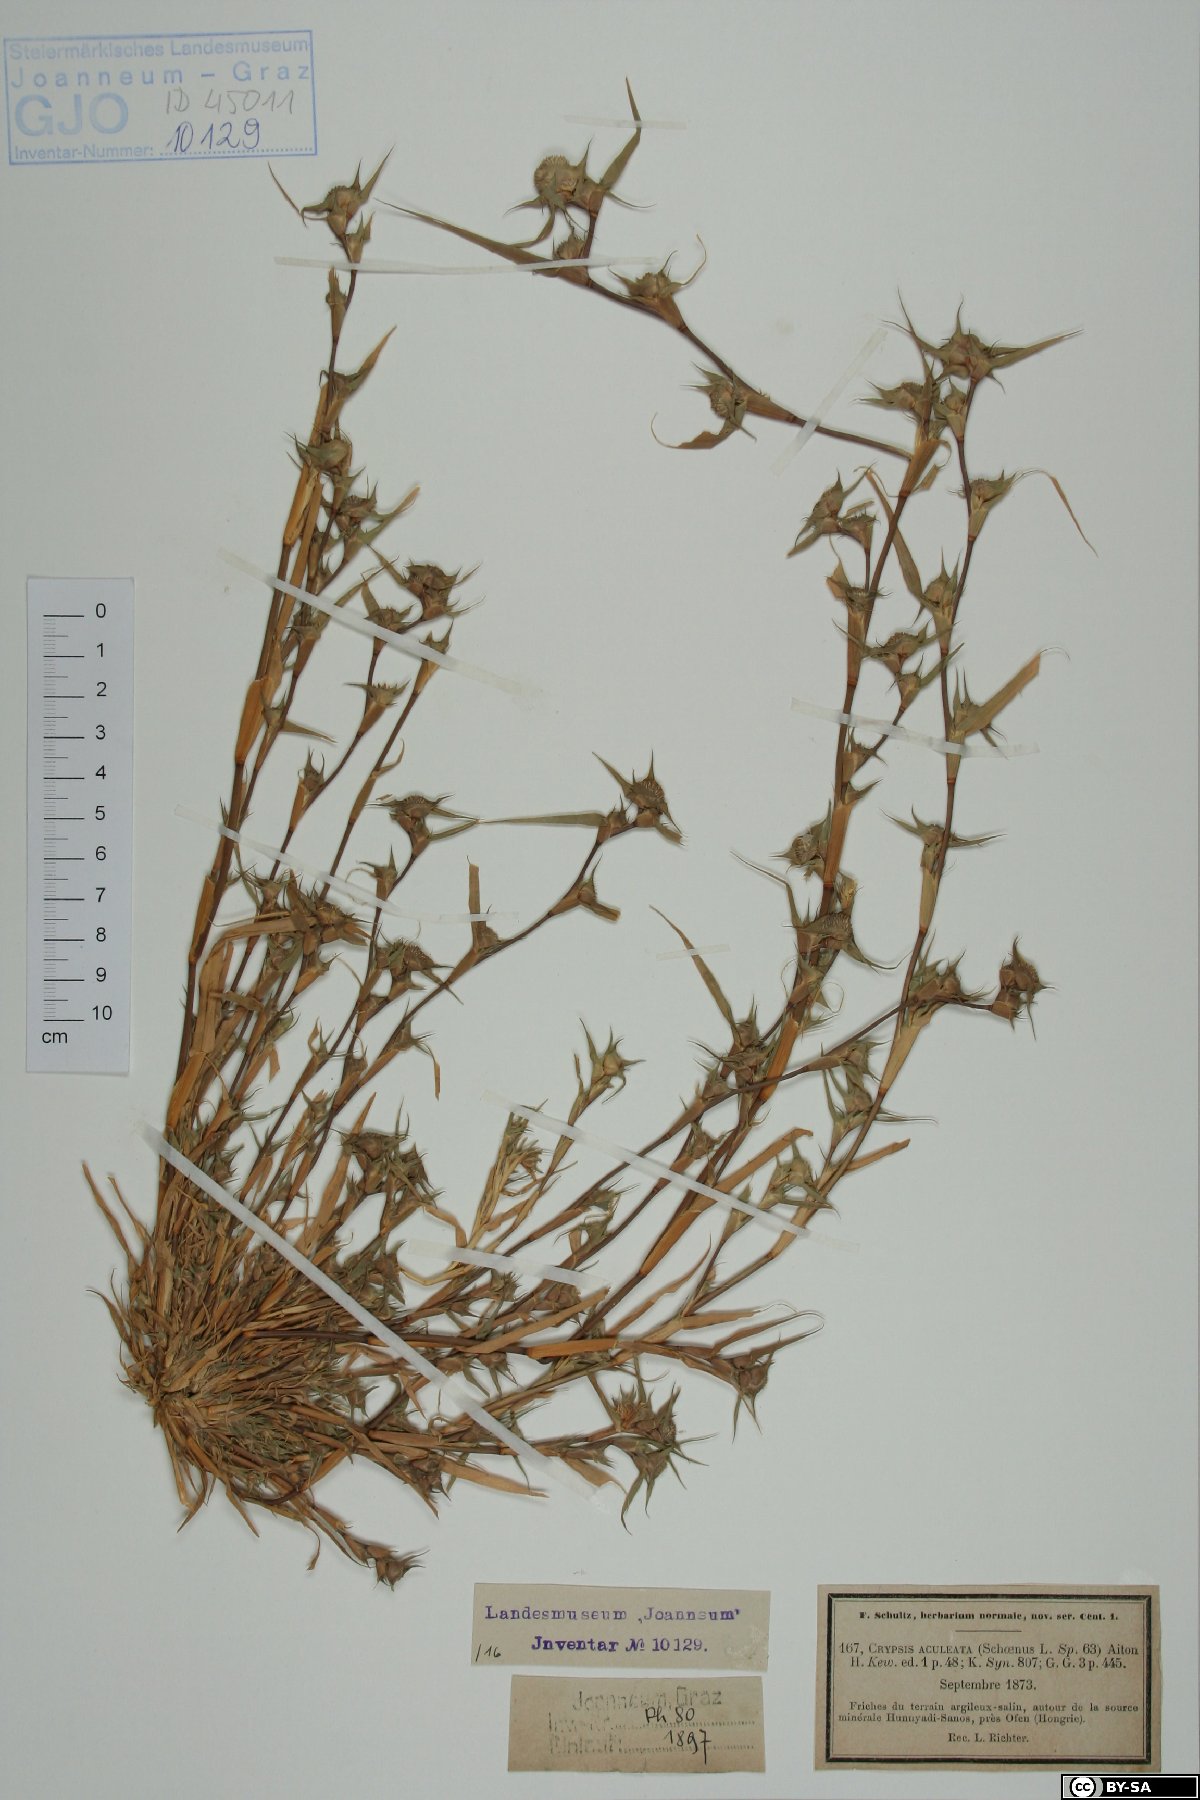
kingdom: Plantae
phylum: Tracheophyta
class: Liliopsida
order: Poales
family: Poaceae
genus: Sporobolus
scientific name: Sporobolus aculeatus
